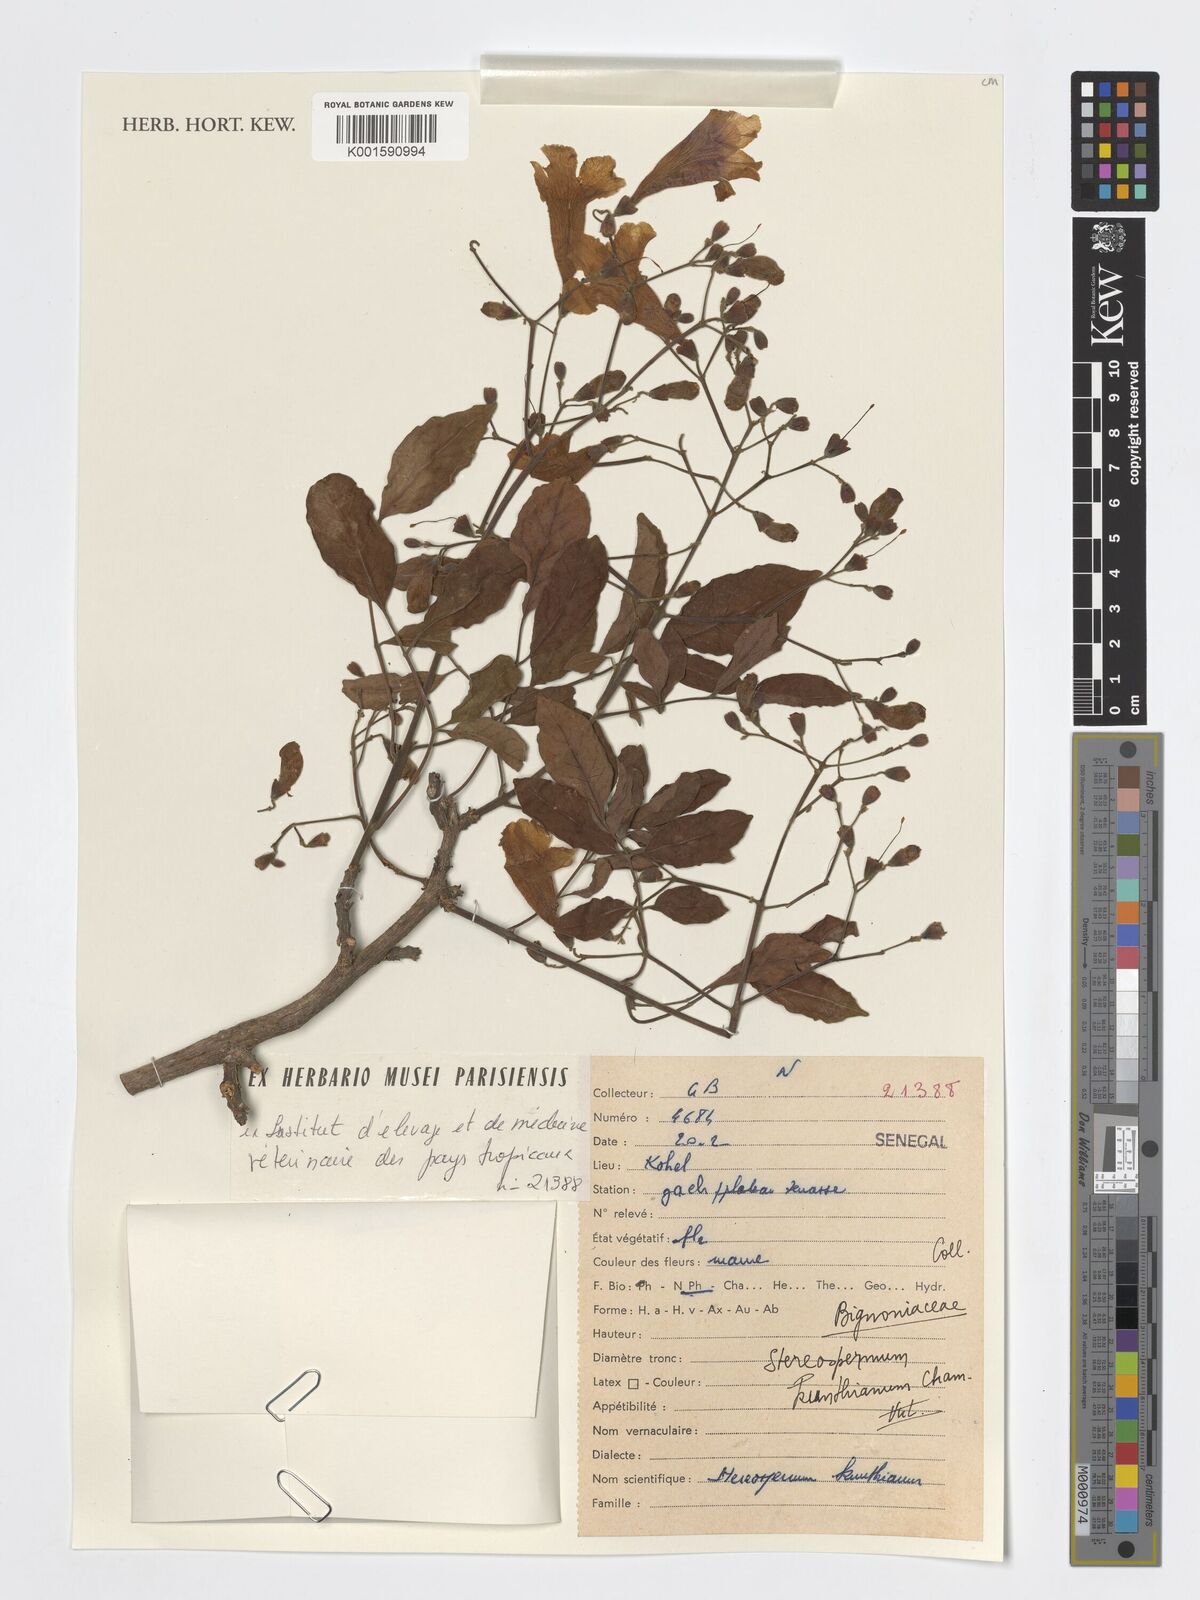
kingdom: Plantae
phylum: Tracheophyta
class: Magnoliopsida
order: Lamiales
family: Bignoniaceae
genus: Stereospermum
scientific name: Stereospermum kunthianum
